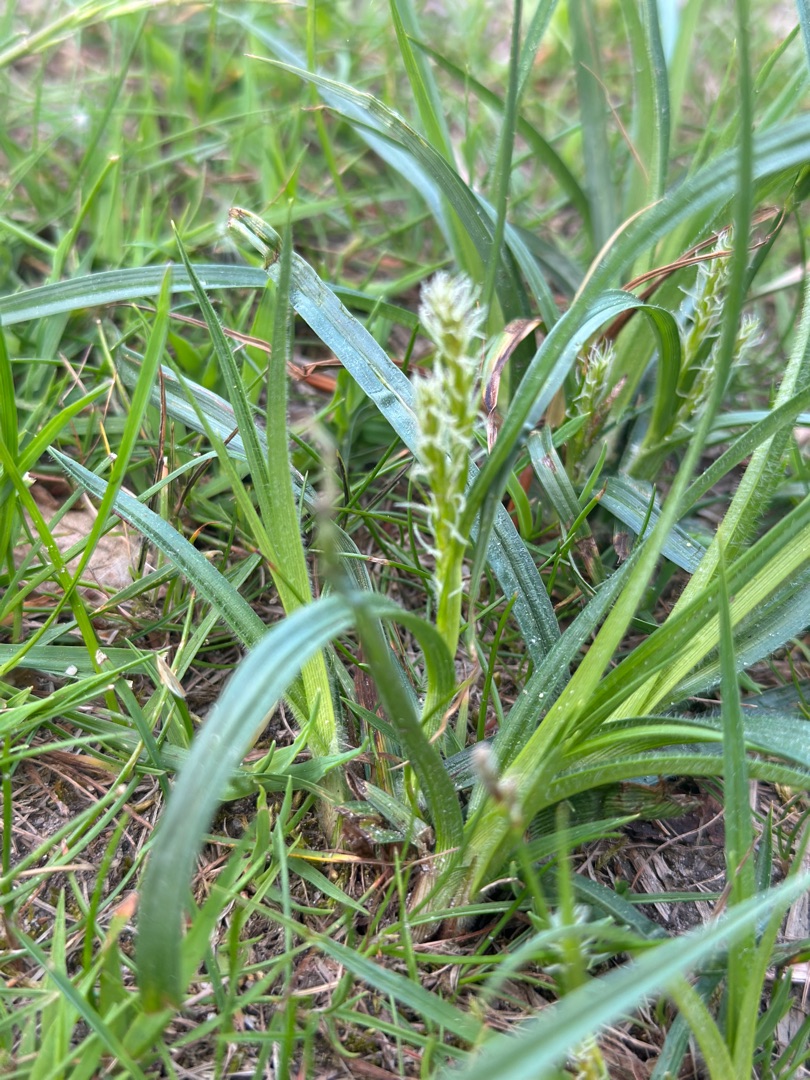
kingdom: Plantae
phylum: Tracheophyta
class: Liliopsida
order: Poales
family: Cyperaceae
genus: Carex
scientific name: Carex hirta
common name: Håret star
